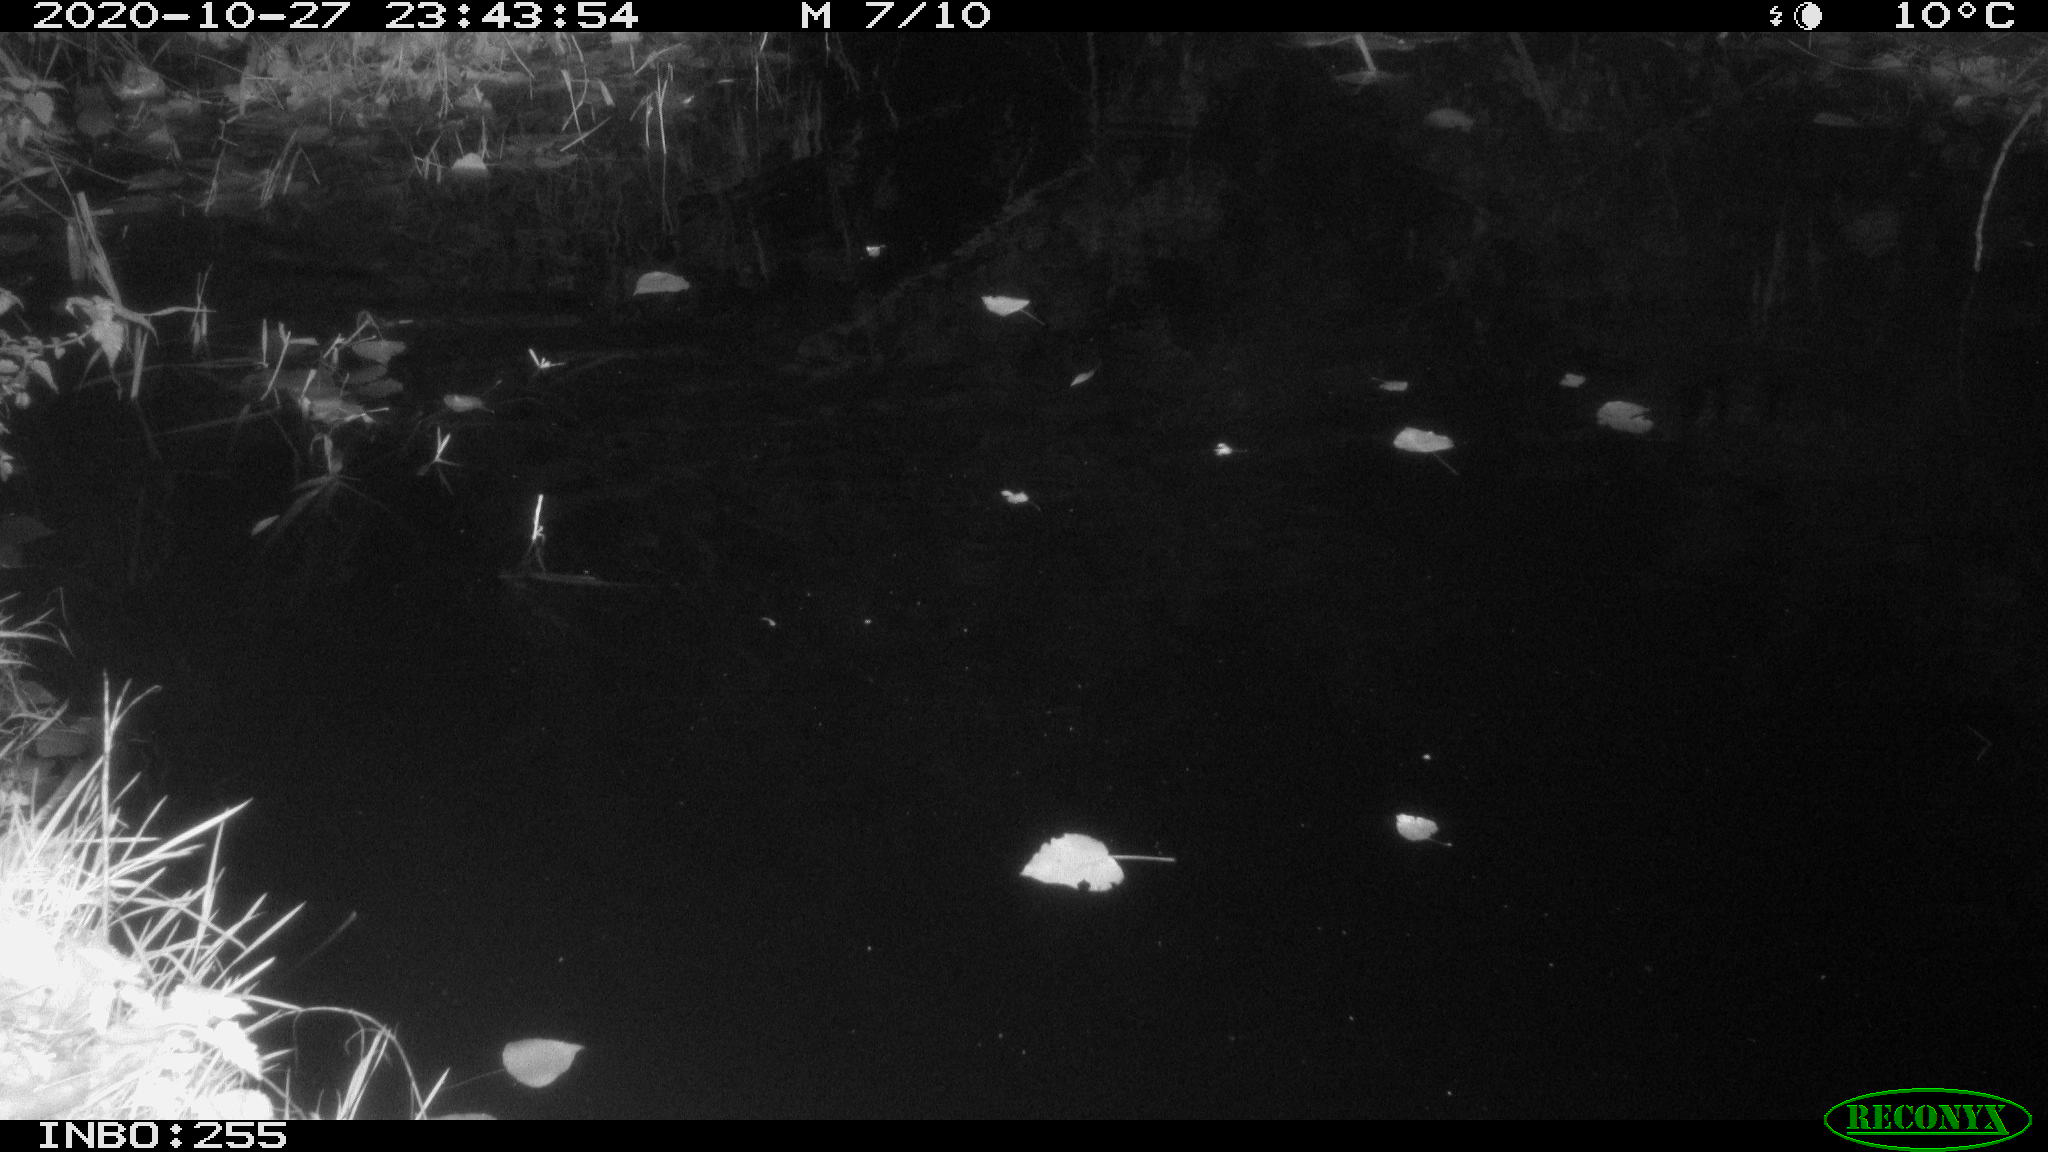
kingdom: Animalia
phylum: Chordata
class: Mammalia
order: Rodentia
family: Muridae
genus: Rattus
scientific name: Rattus norvegicus
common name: Brown rat
